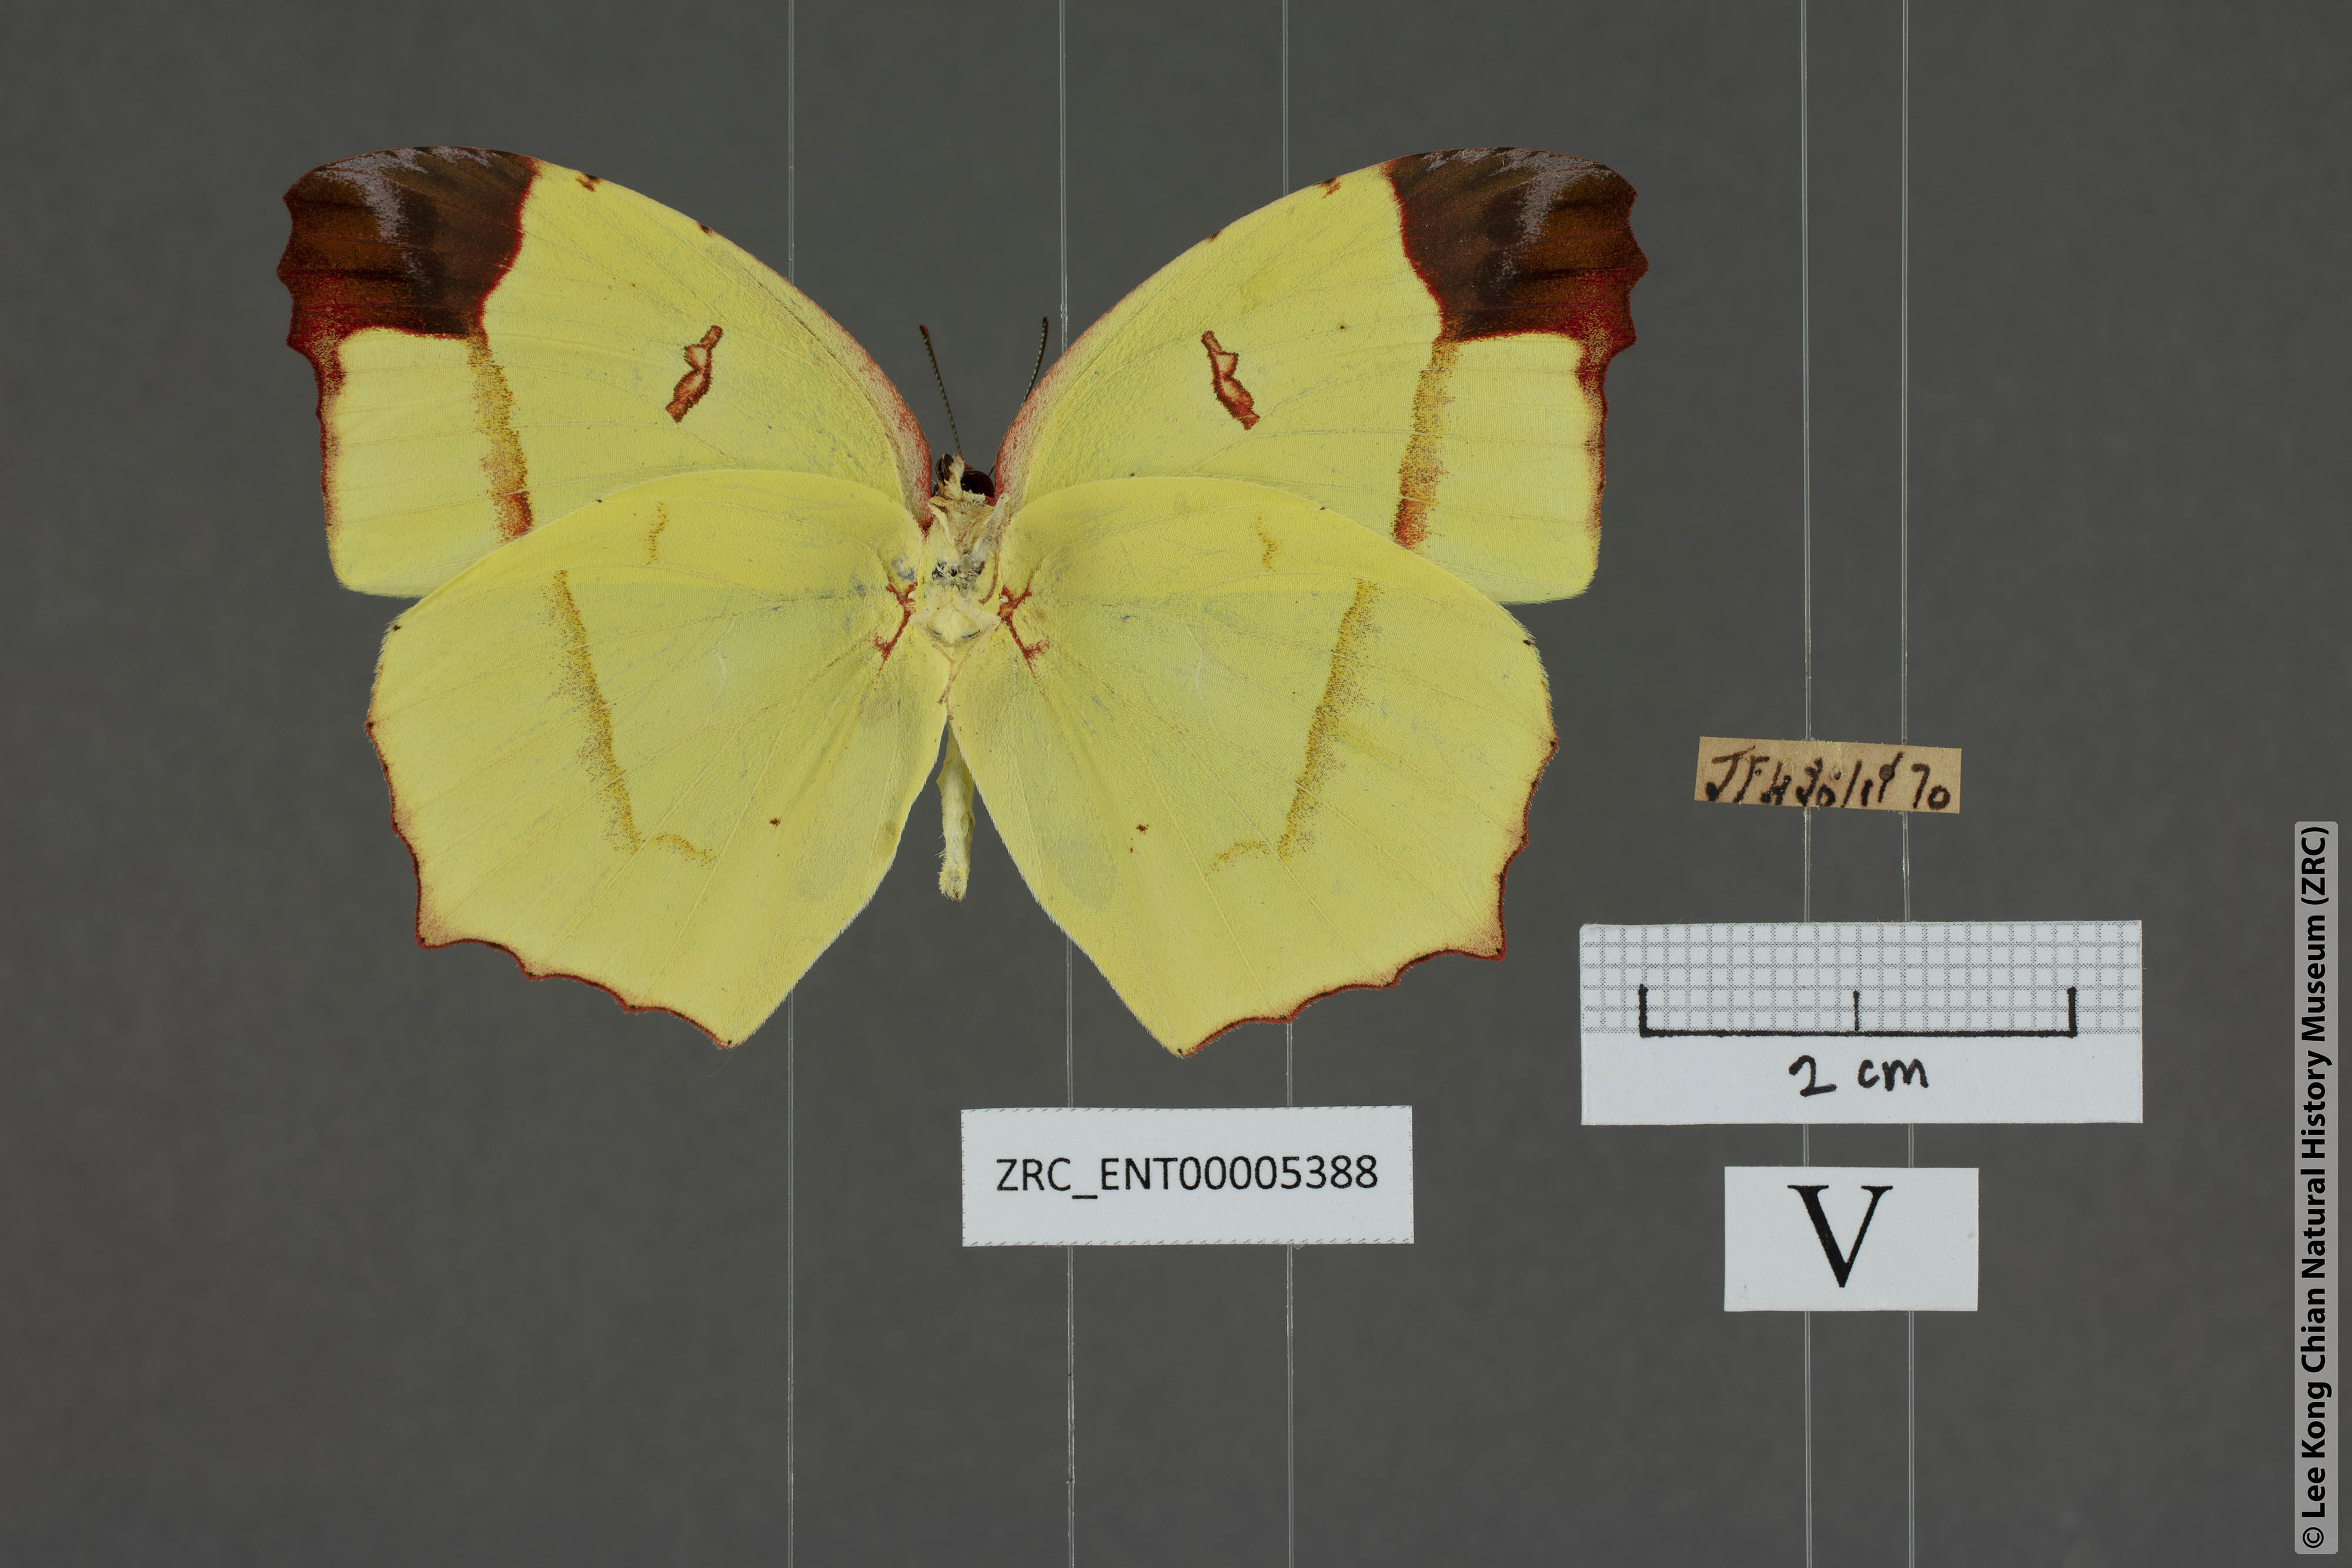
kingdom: Animalia
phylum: Arthropoda
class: Insecta
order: Lepidoptera
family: Pieridae
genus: Dercas
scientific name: Dercas verhuelli
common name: Tailed sulphur
